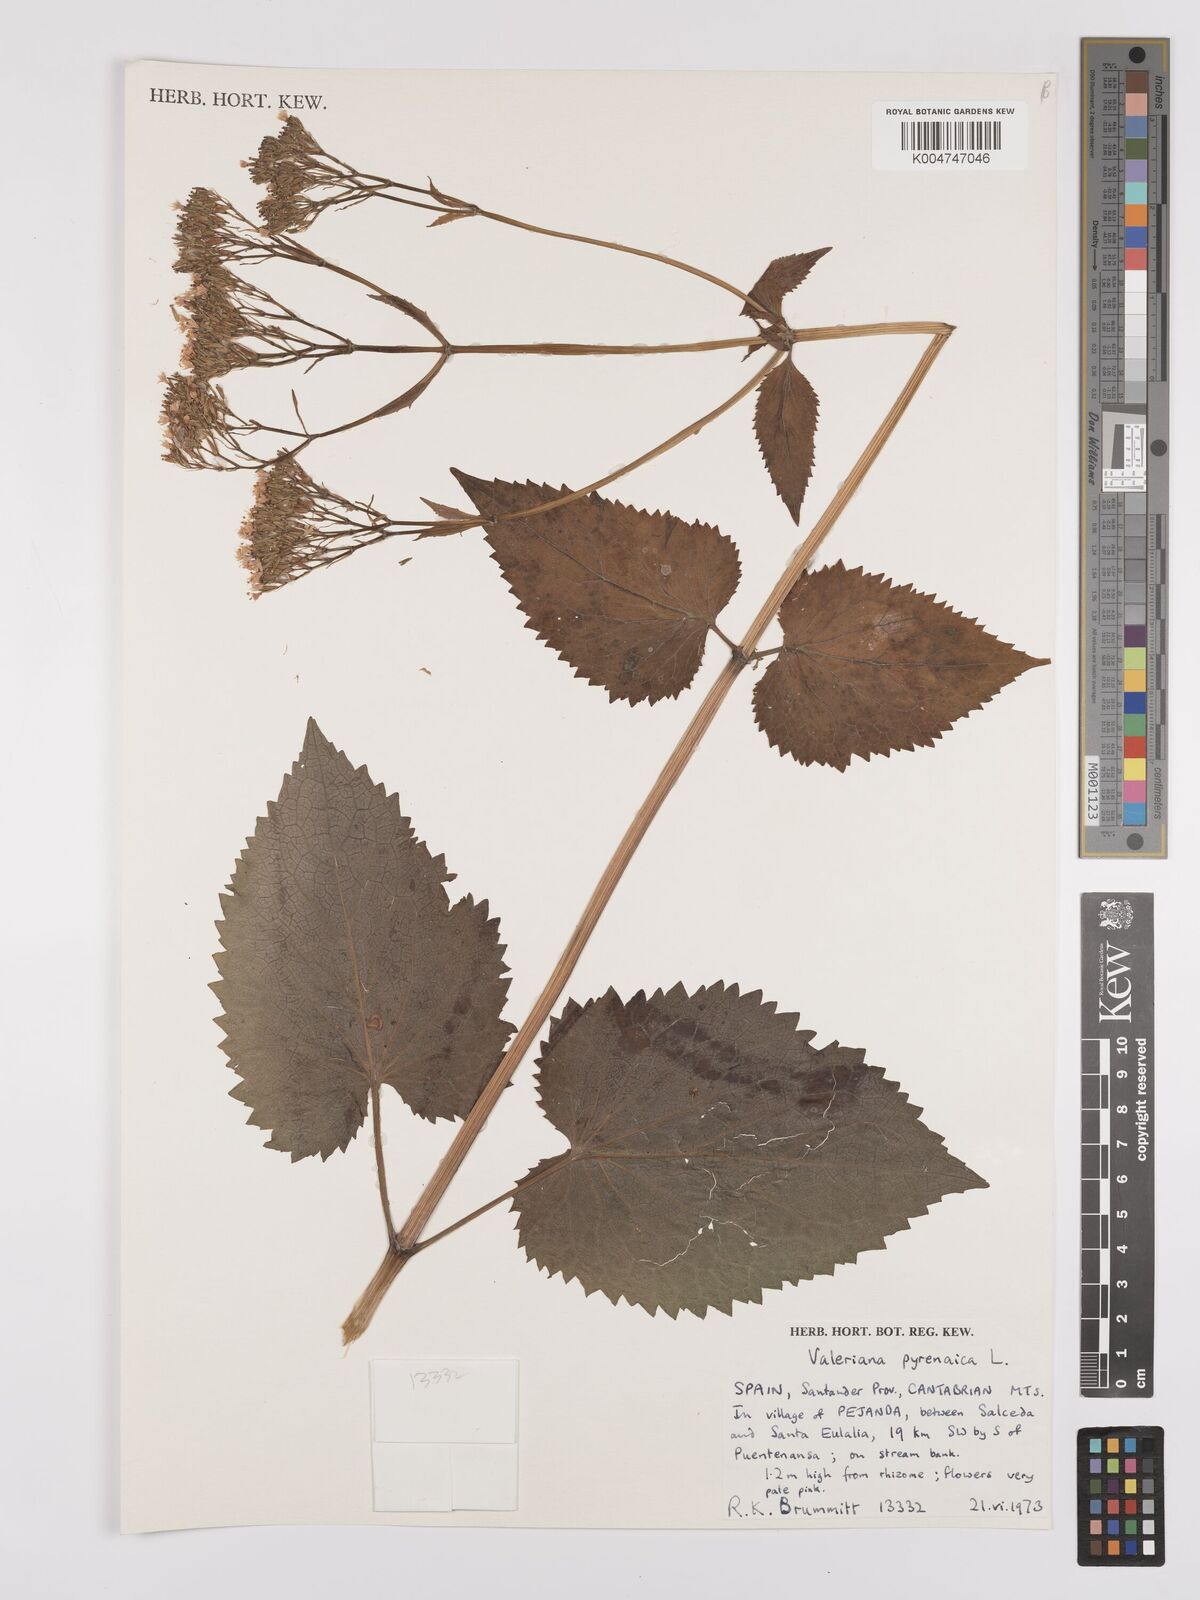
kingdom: Plantae
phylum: Tracheophyta
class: Magnoliopsida
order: Dipsacales
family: Caprifoliaceae
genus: Valeriana
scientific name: Valeriana pyrenaica
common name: Pyrenean valerian
